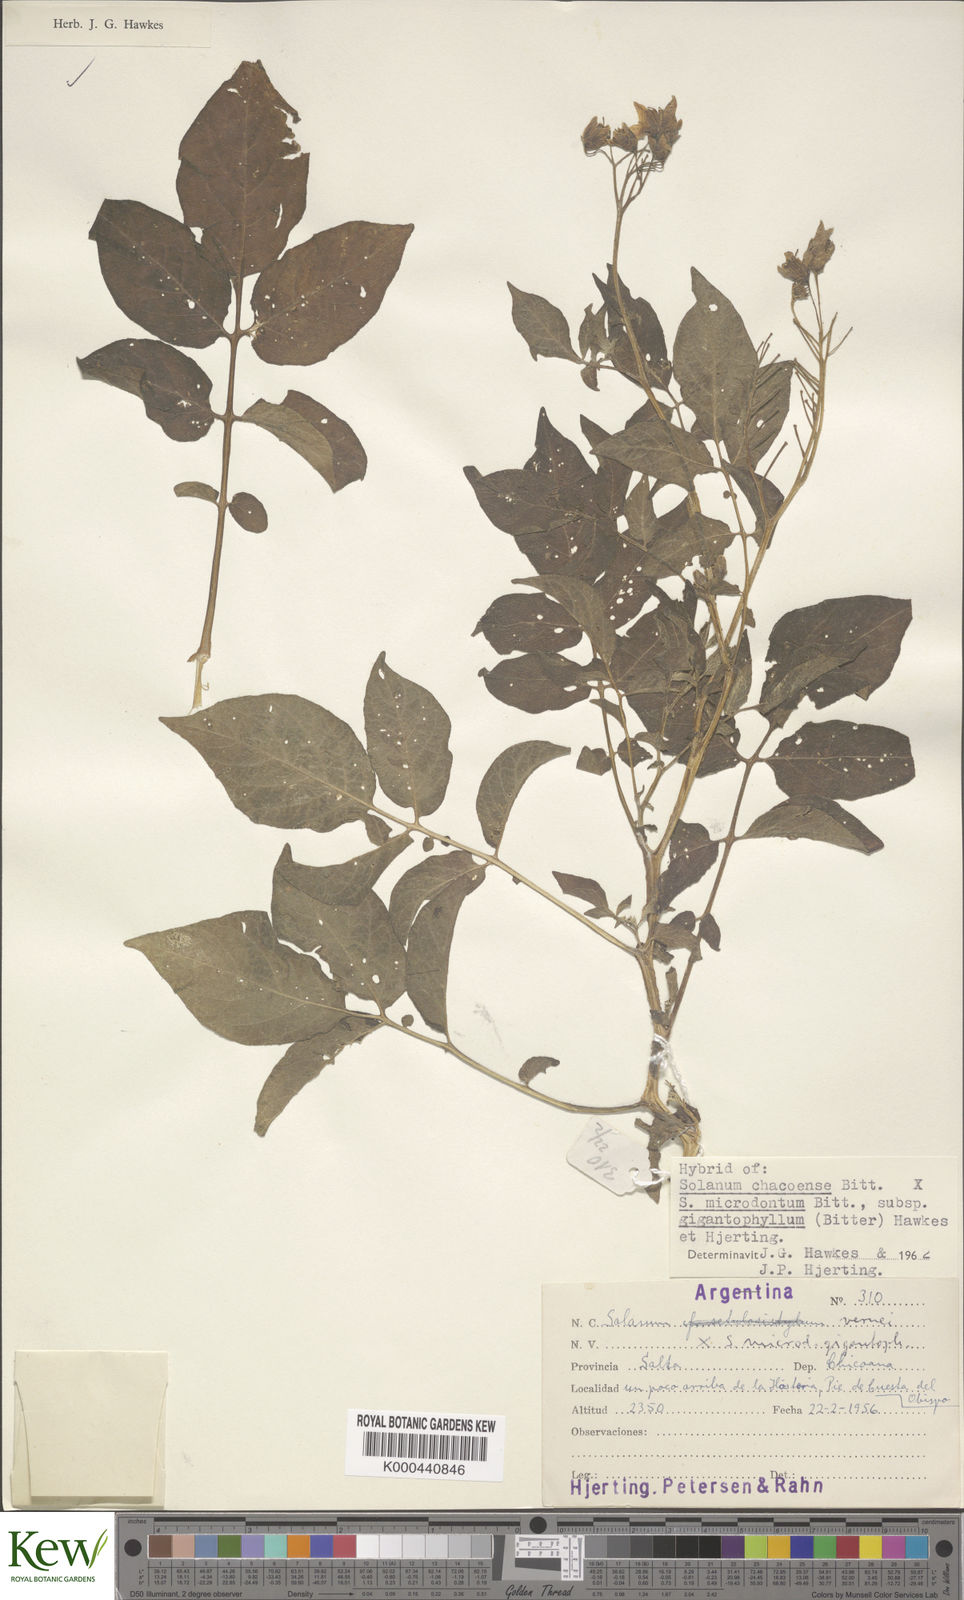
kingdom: Plantae
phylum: Tracheophyta
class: Magnoliopsida
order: Solanales
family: Solanaceae
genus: Solanum
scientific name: Solanum microdontum
